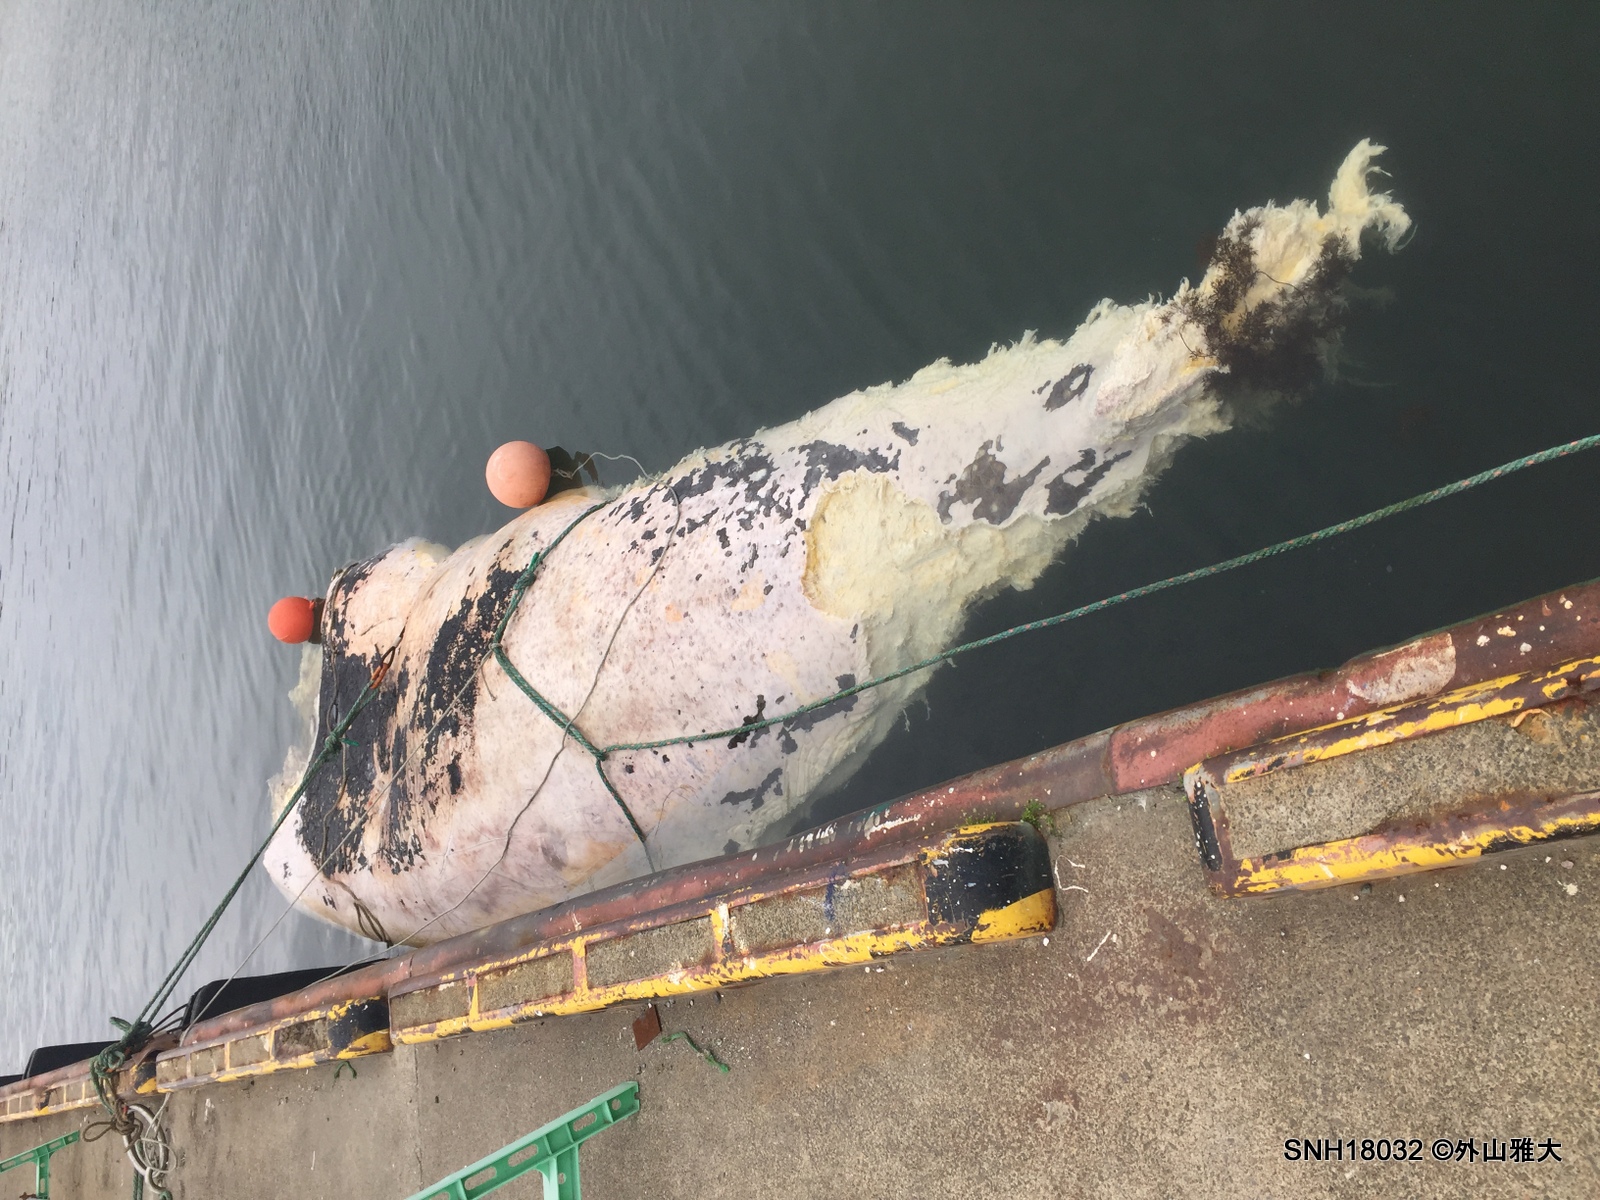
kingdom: Animalia
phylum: Chordata
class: Mammalia
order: Cetacea
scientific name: Cetacea
